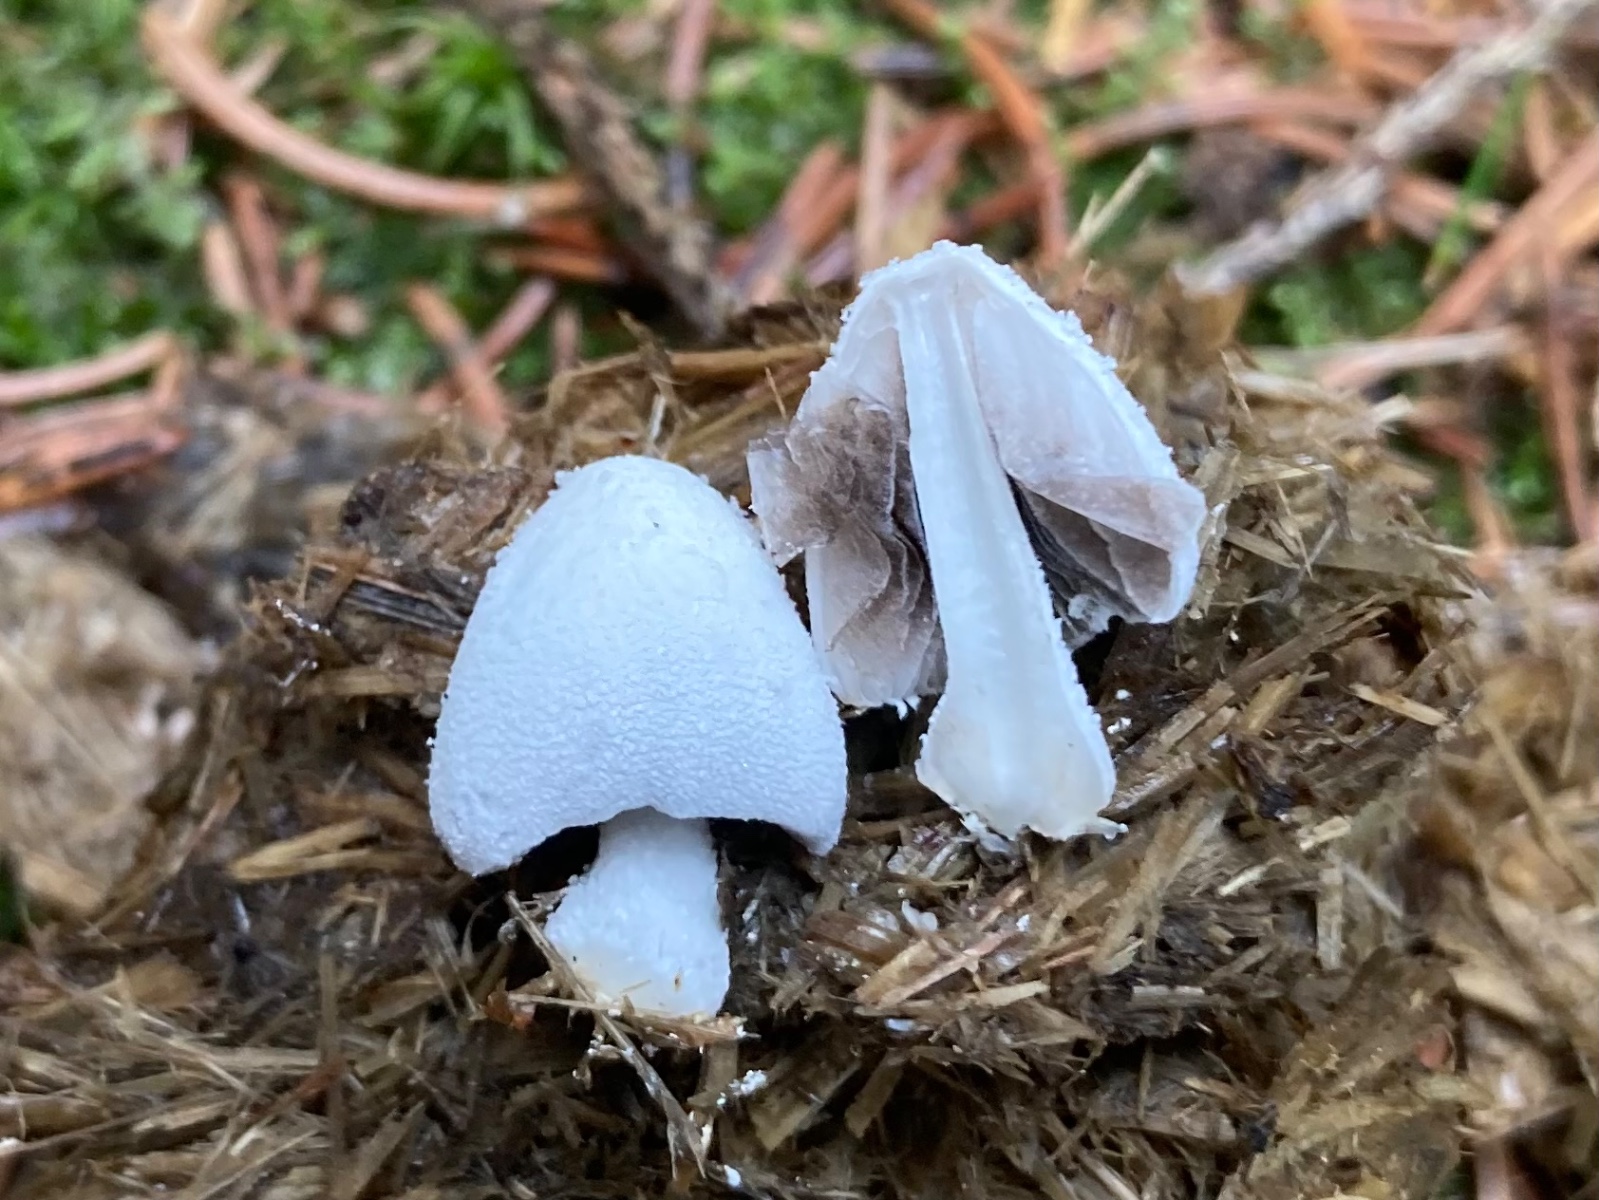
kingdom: Fungi
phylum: Basidiomycota
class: Agaricomycetes
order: Agaricales
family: Psathyrellaceae
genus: Coprinopsis
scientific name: Coprinopsis nivea
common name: snehvid blækhat
